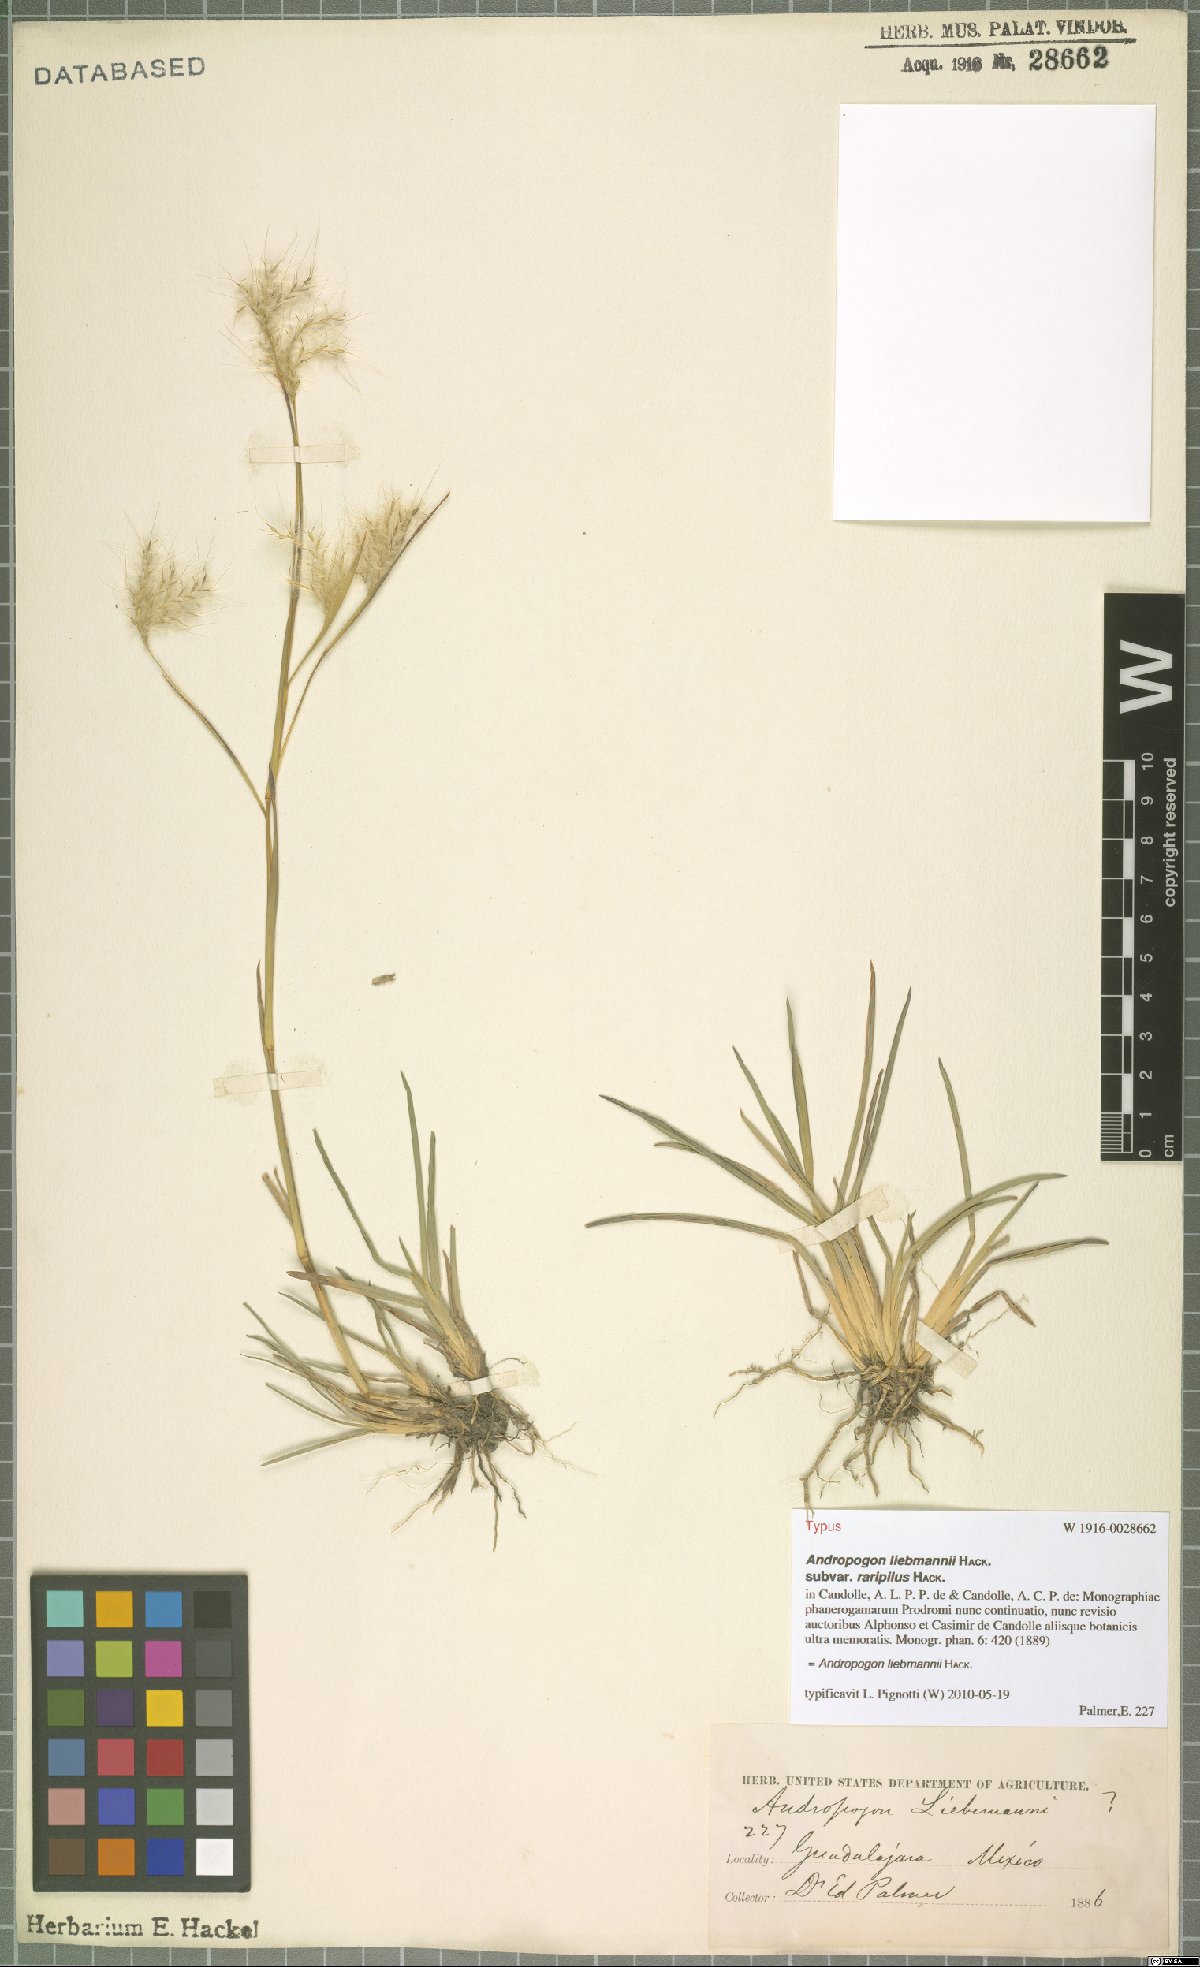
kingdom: Plantae
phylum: Tracheophyta
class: Liliopsida
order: Poales
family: Poaceae
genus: Andropogon
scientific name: Andropogon liebmannii
